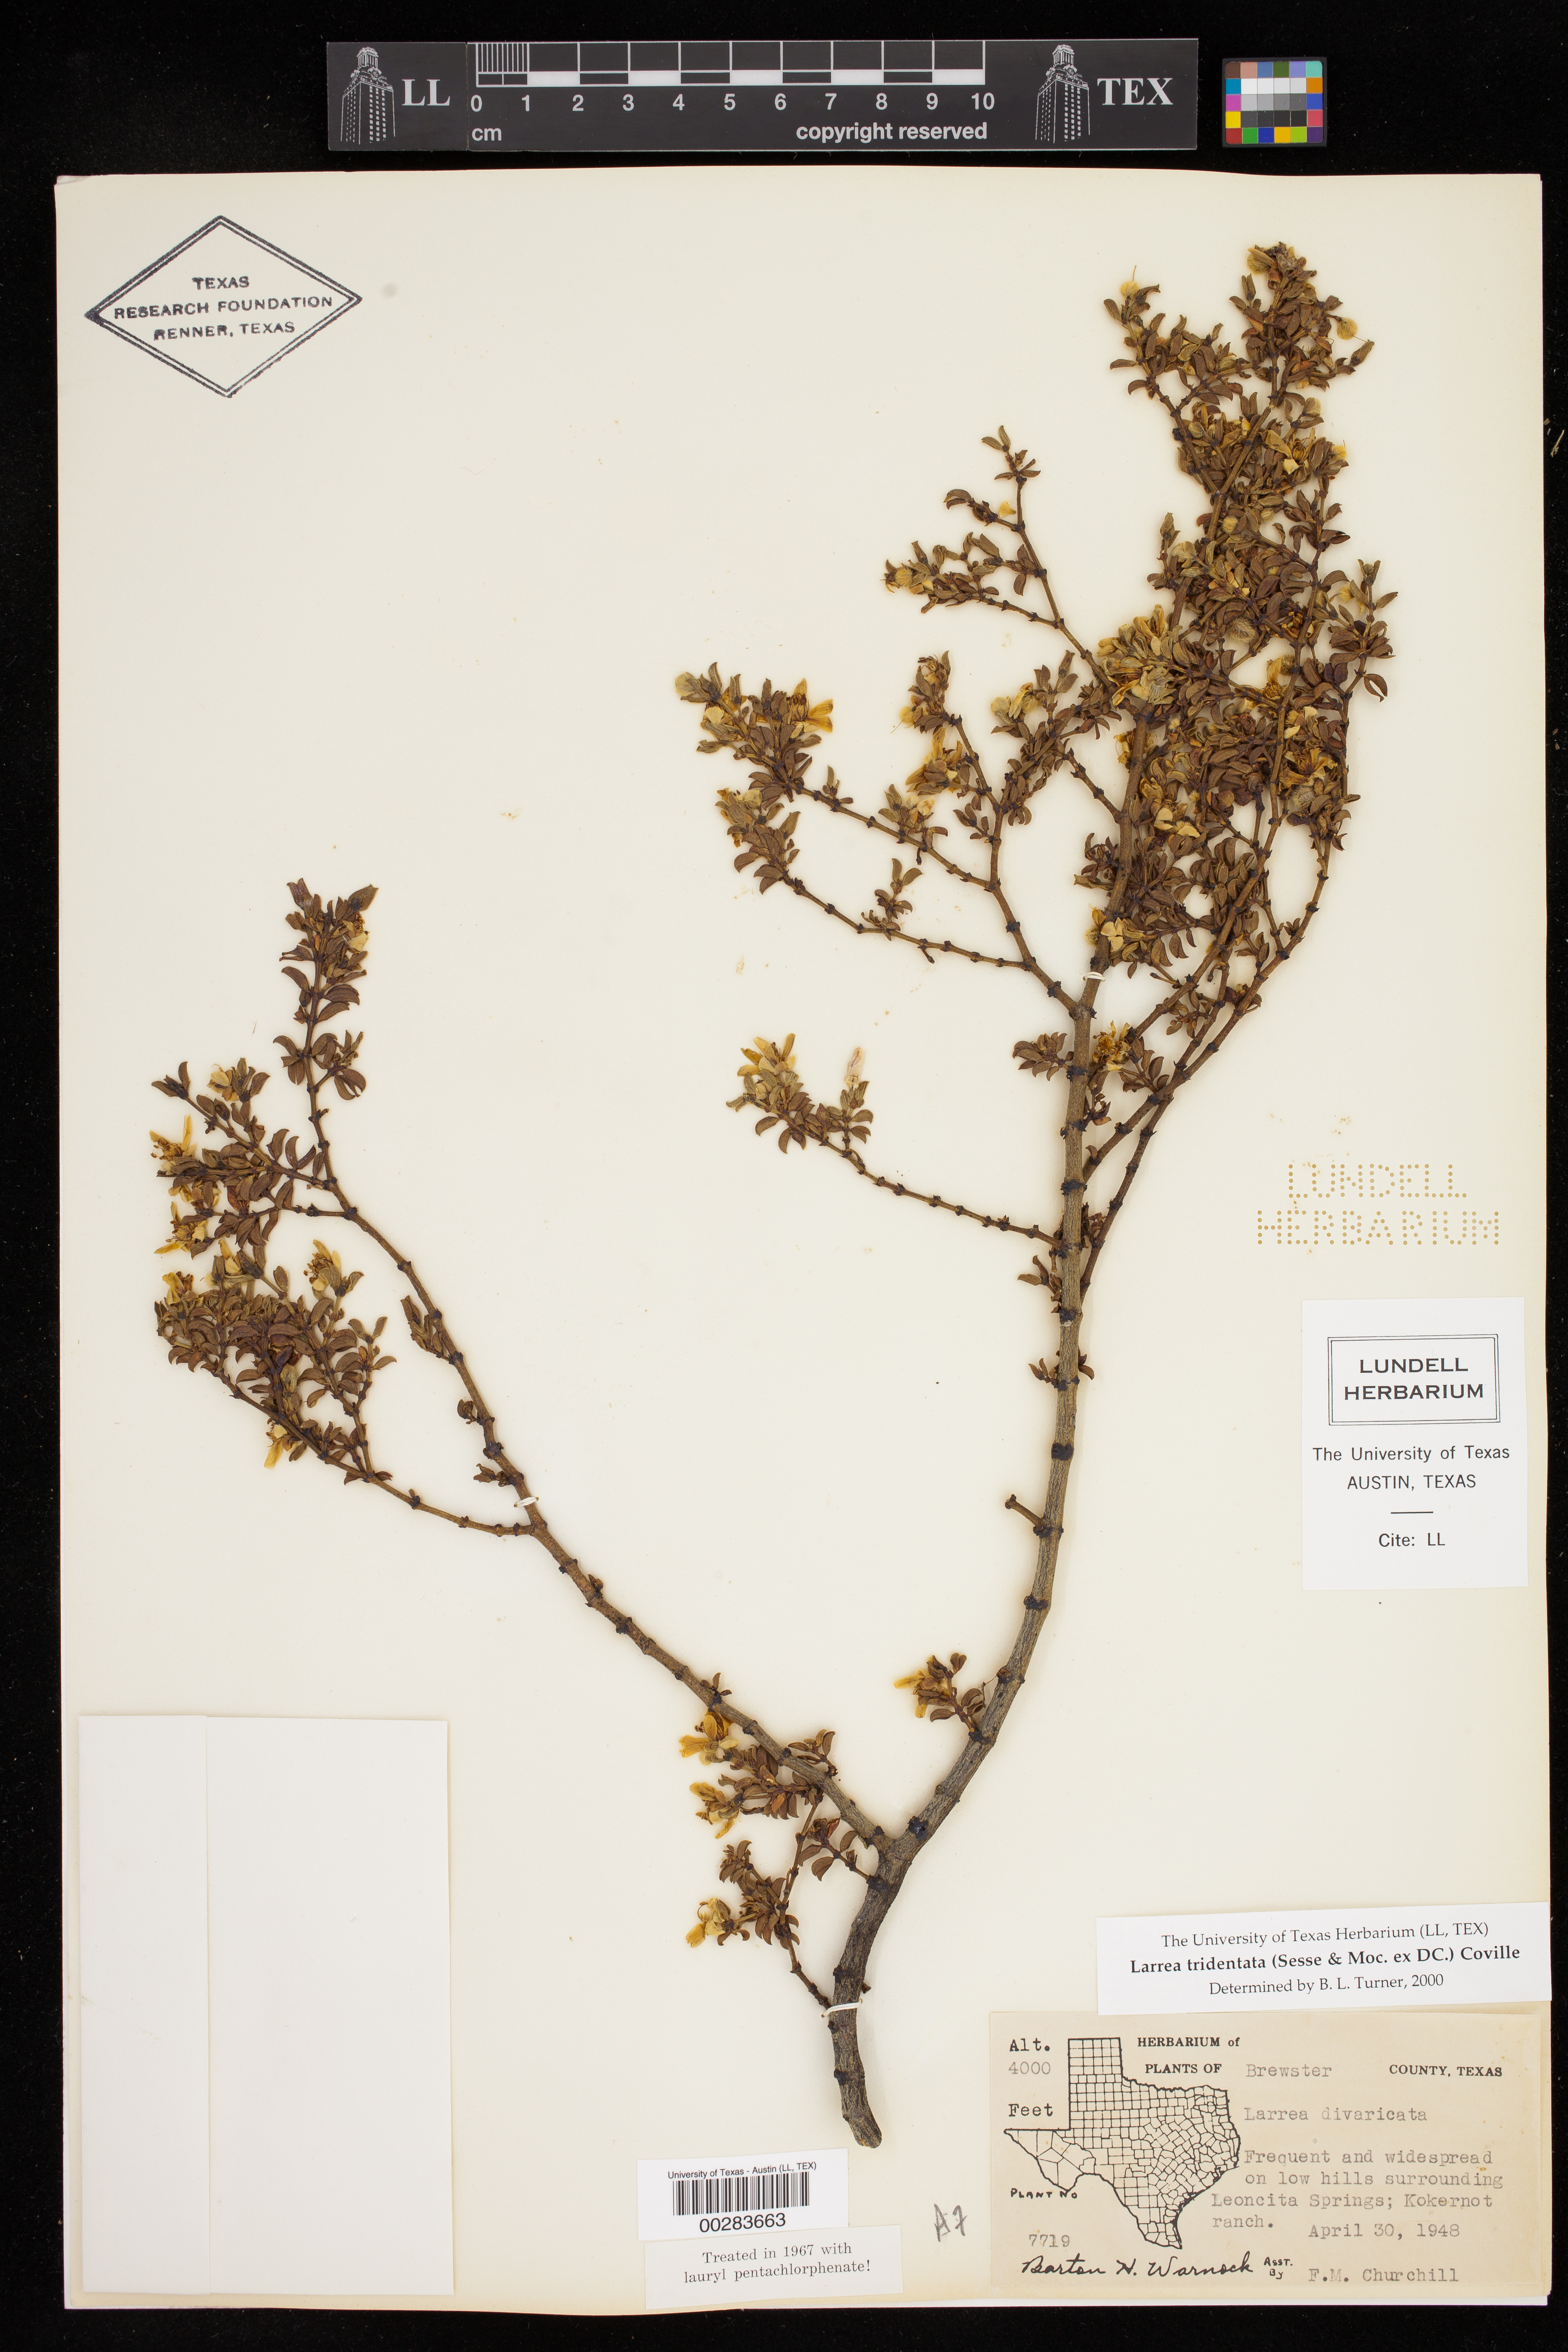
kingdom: Plantae
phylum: Tracheophyta
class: Magnoliopsida
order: Zygophyllales
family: Zygophyllaceae
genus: Larrea
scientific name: Larrea tridentata
